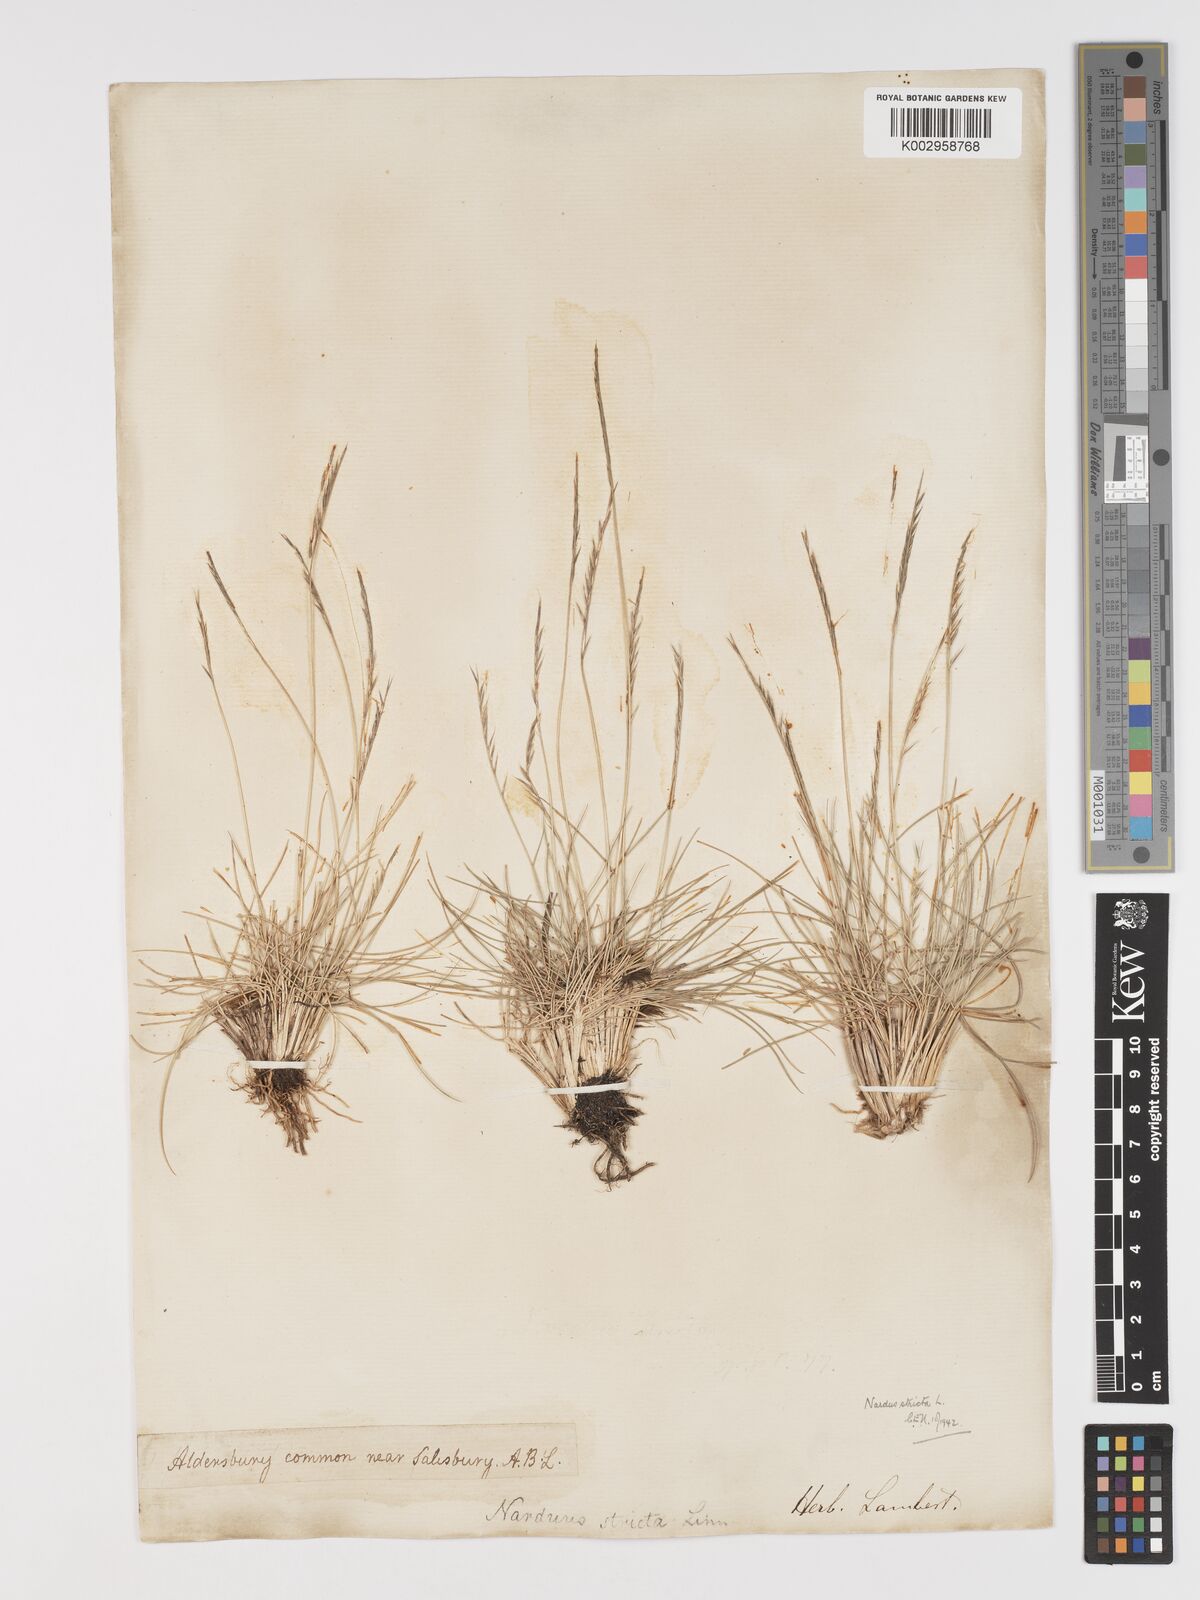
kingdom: Plantae
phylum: Tracheophyta
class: Liliopsida
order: Poales
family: Poaceae
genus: Nardus
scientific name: Nardus stricta
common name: Mat-grass
